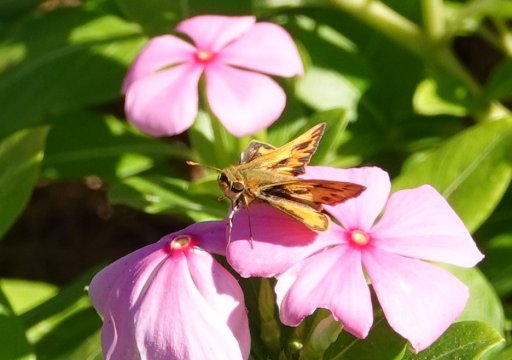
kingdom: Animalia
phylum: Arthropoda
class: Insecta
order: Lepidoptera
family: Hesperiidae
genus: Hylephila
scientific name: Hylephila phyleus
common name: Fiery Skipper
